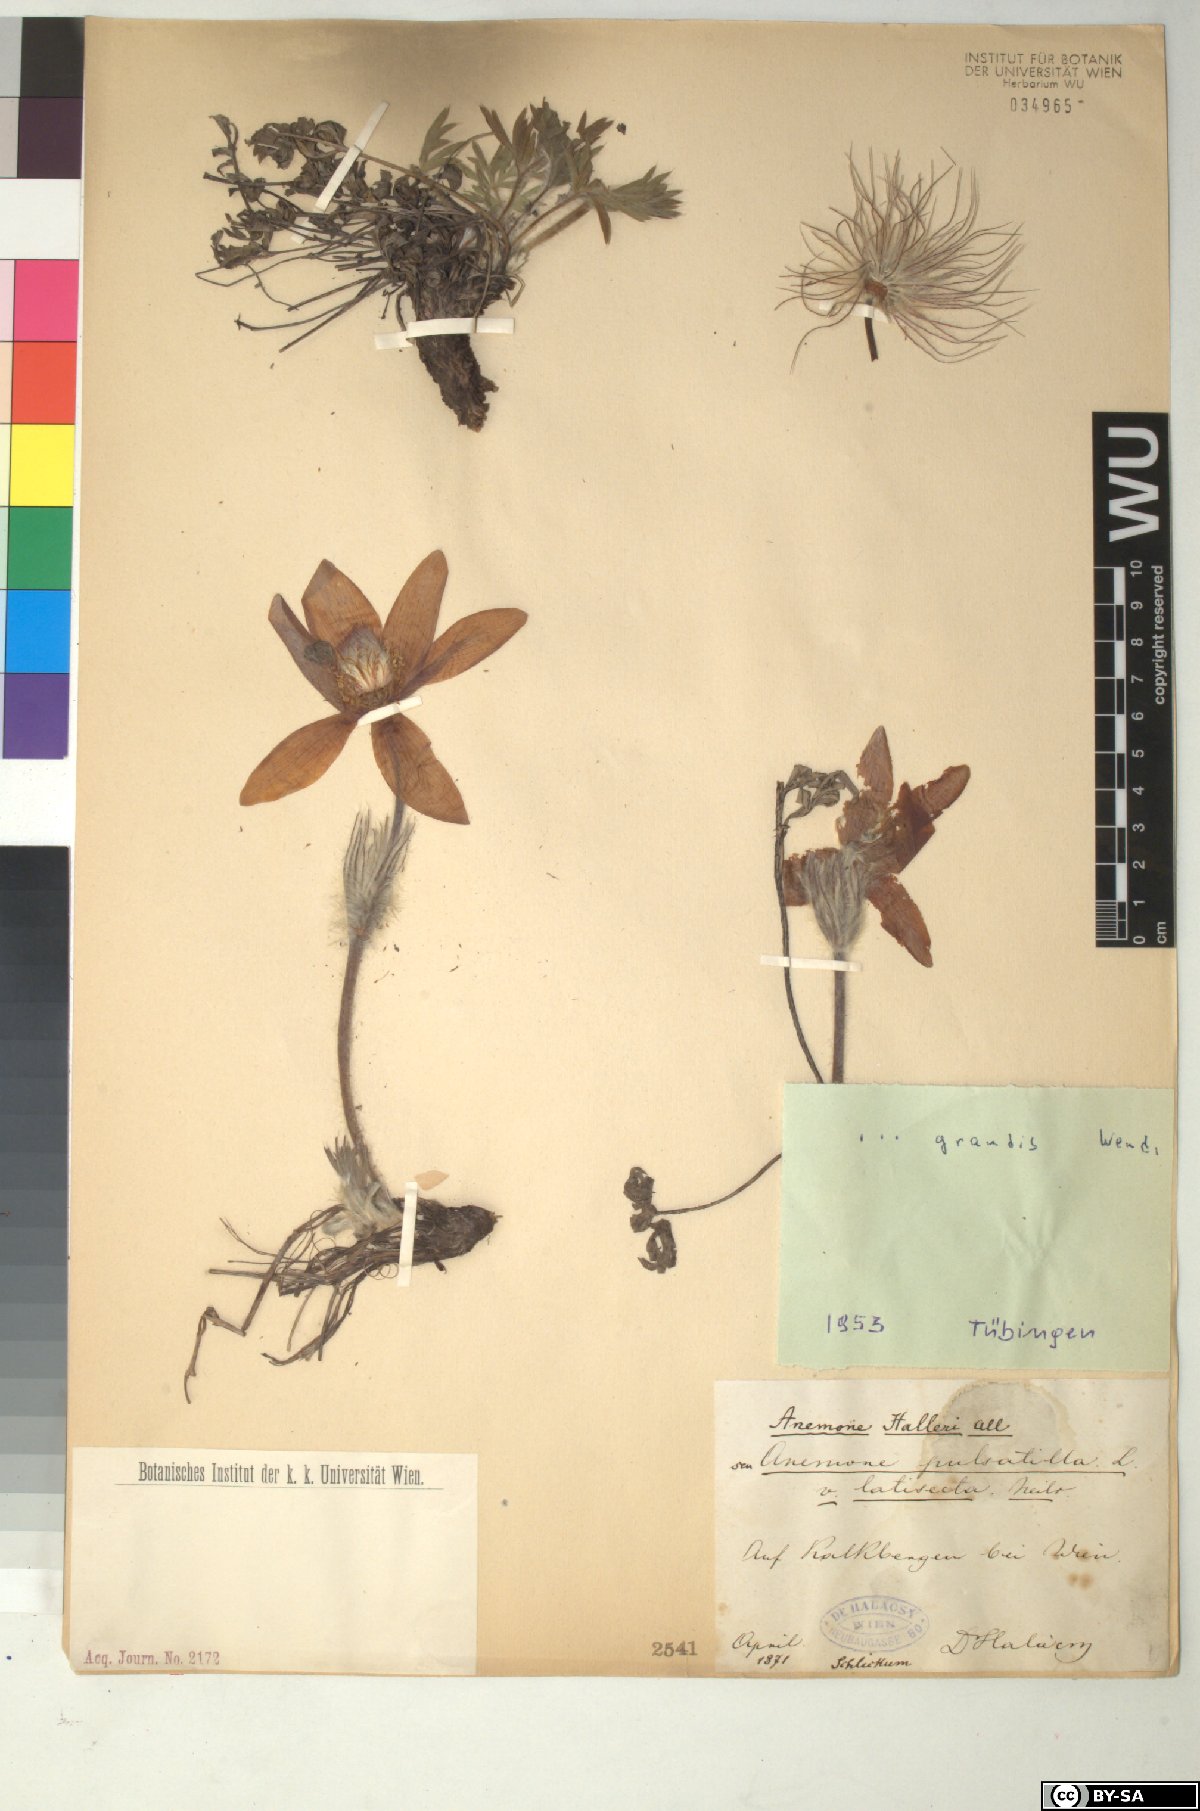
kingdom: Plantae
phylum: Tracheophyta
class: Magnoliopsida
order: Ranunculales
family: Ranunculaceae
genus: Pulsatilla
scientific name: Pulsatilla grandis
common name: Greater pasque flower
